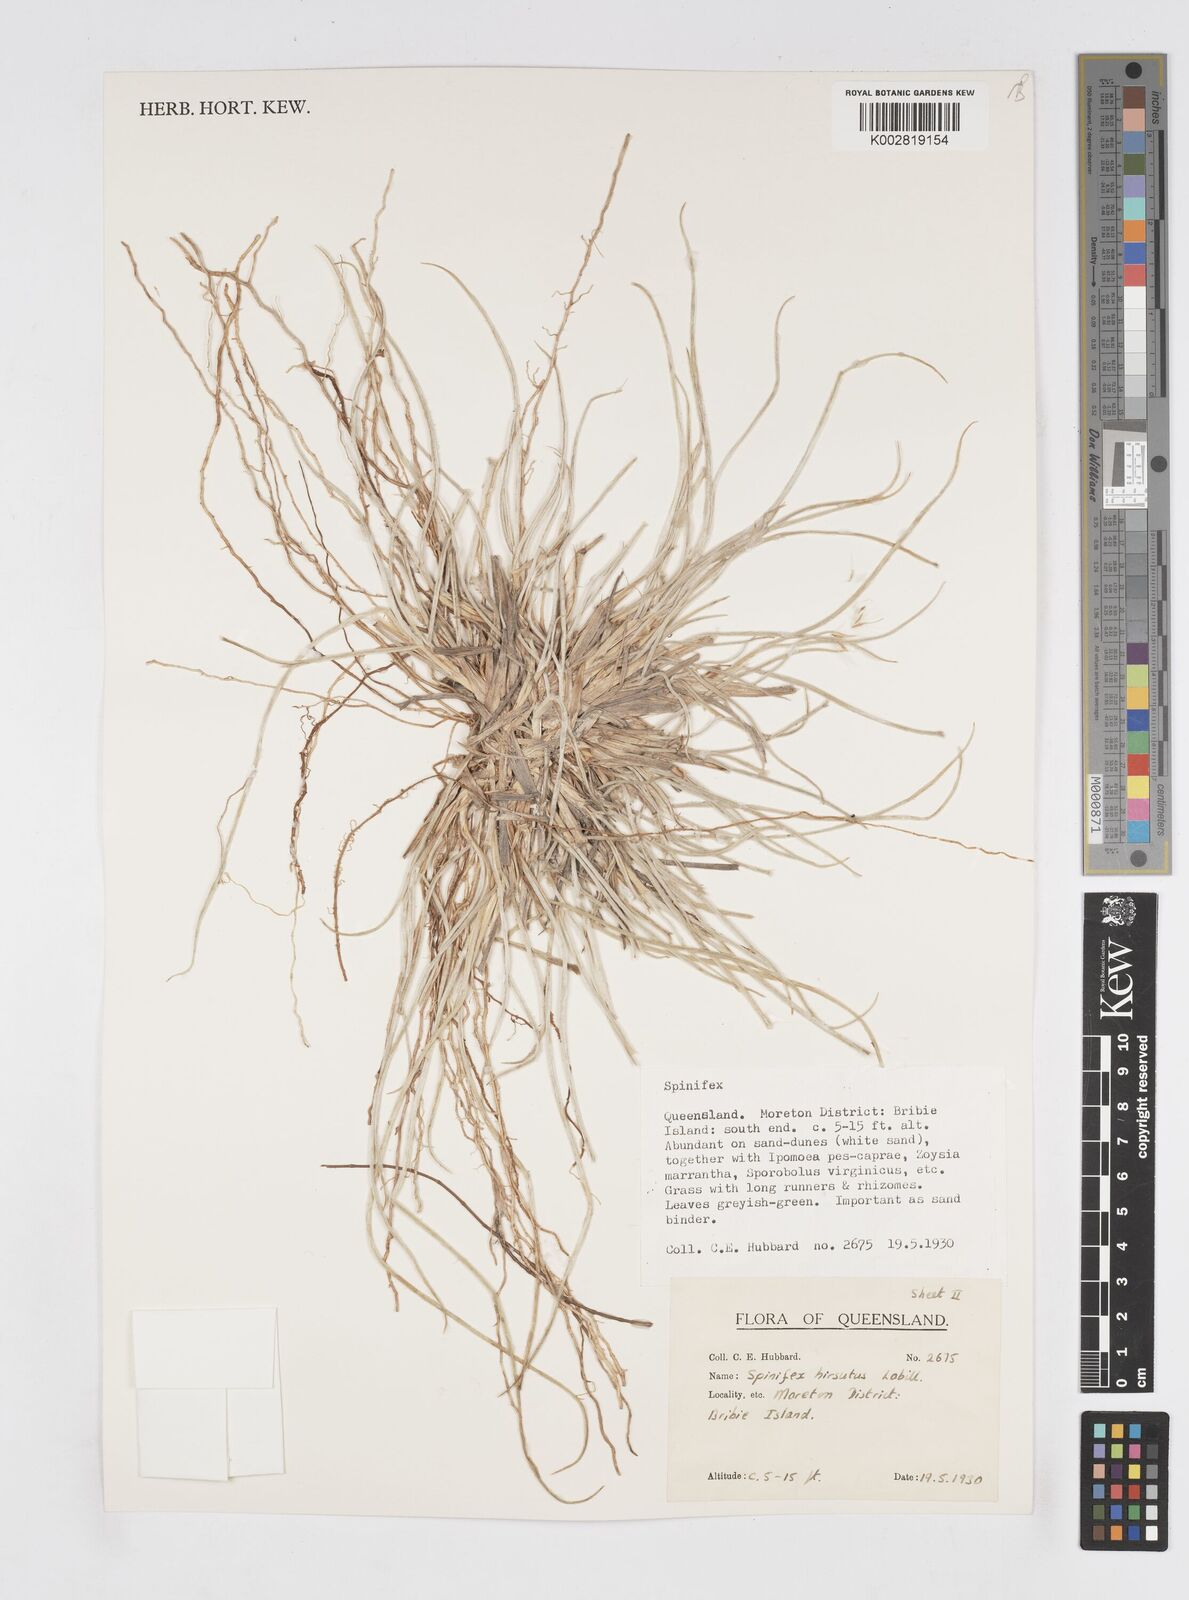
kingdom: Plantae
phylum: Tracheophyta
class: Liliopsida
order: Poales
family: Poaceae
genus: Spinifex
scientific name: Spinifex hirsutus
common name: Hairy spinifex
